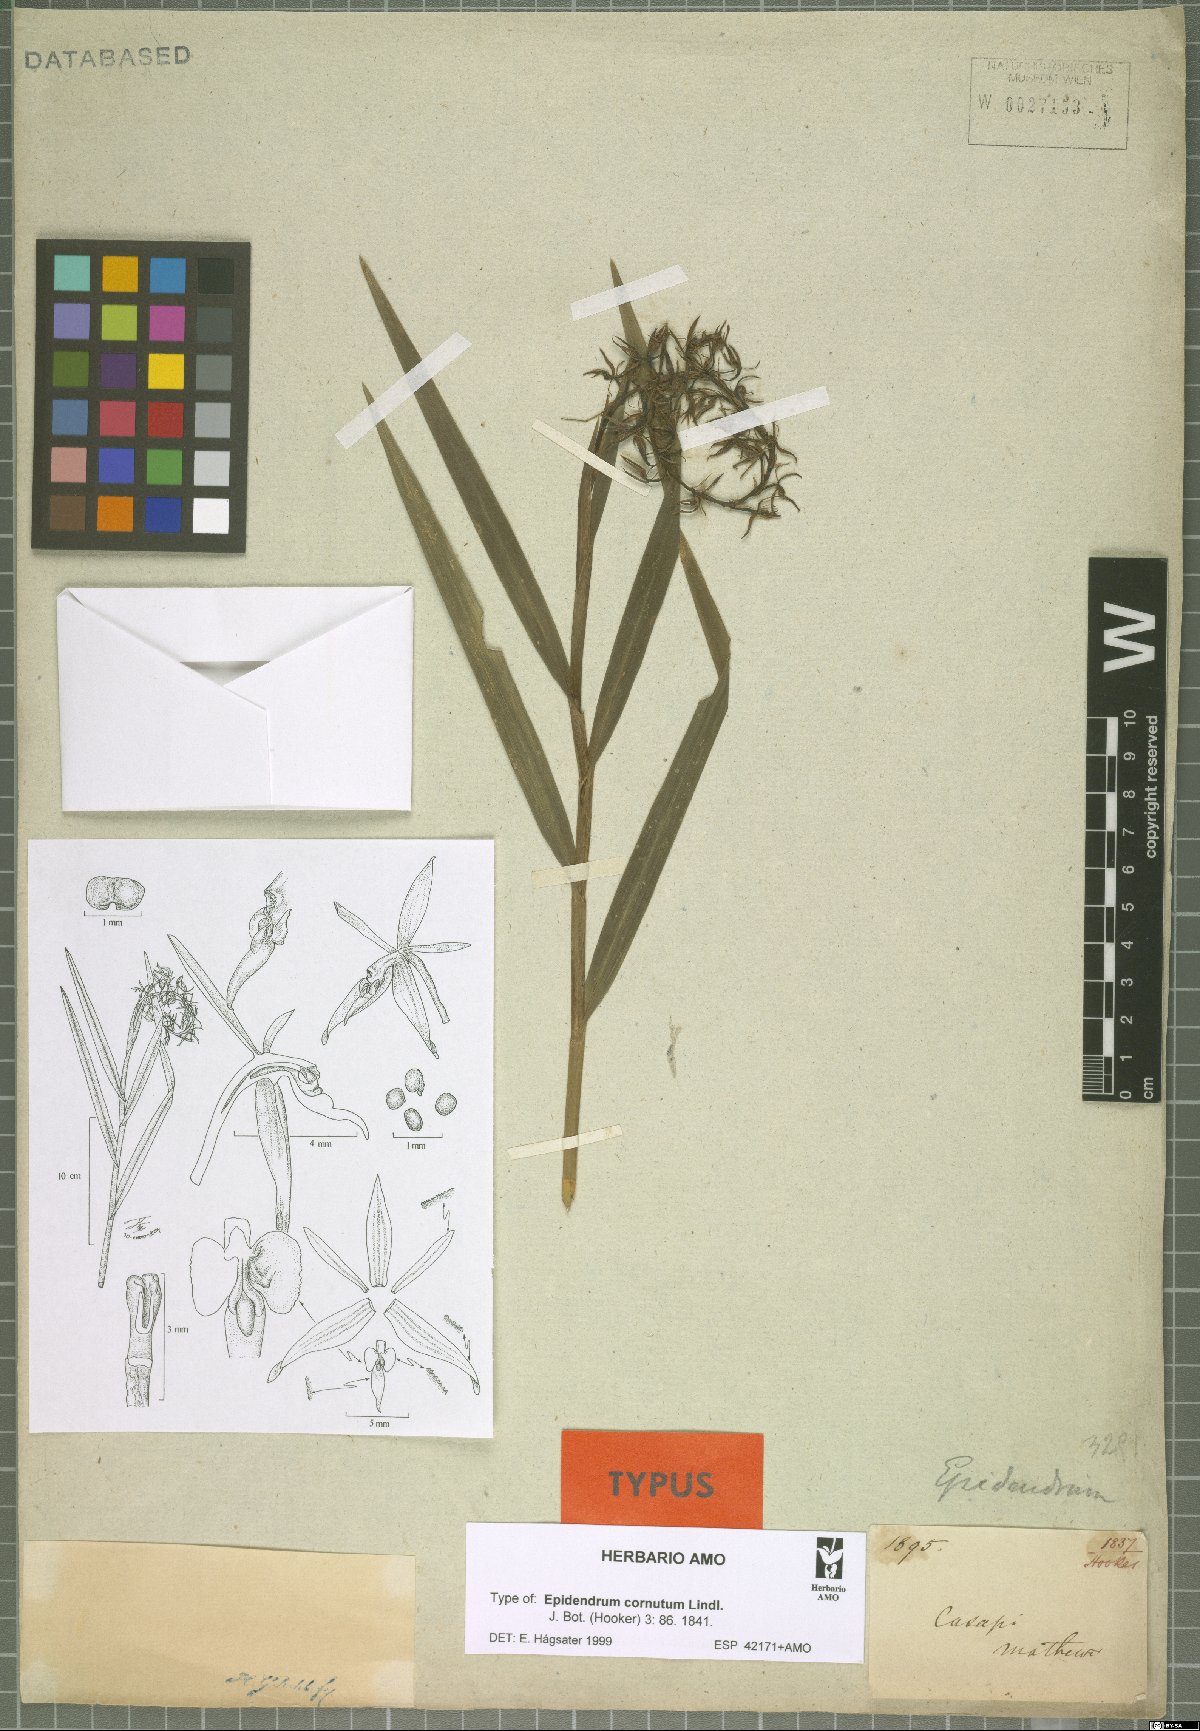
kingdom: Plantae
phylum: Tracheophyta
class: Liliopsida
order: Asparagales
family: Orchidaceae
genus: Epidendrum
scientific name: Epidendrum cornutum
